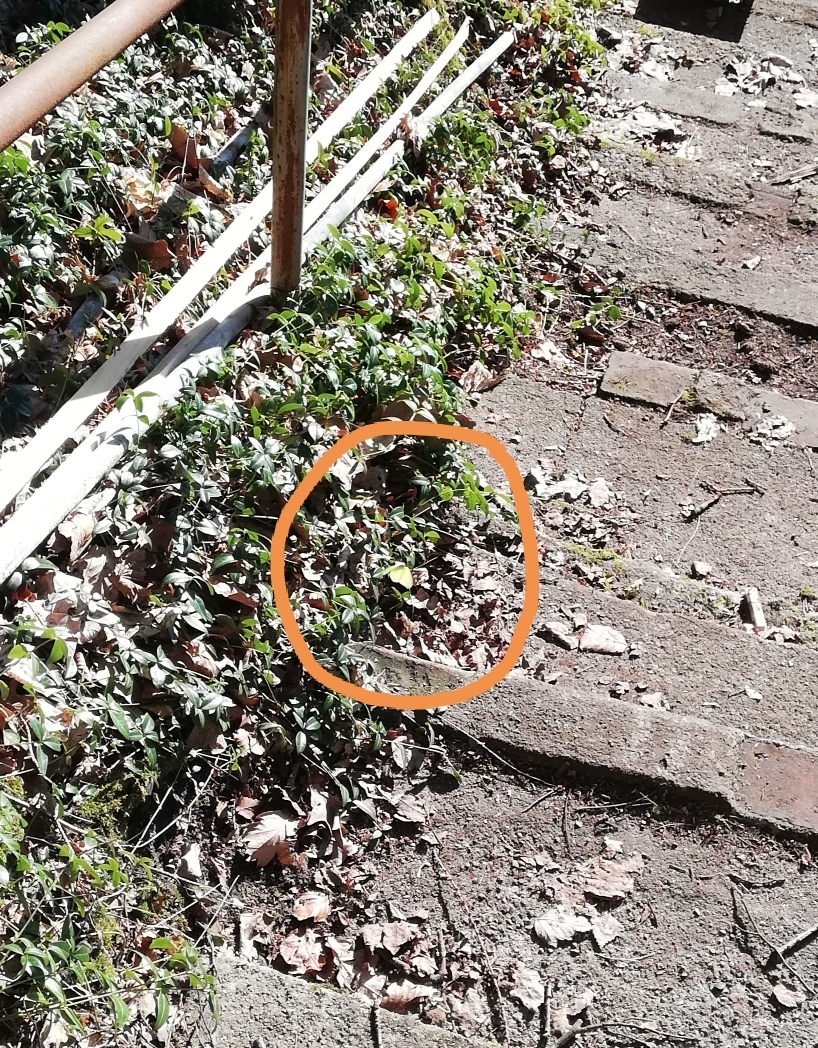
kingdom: Animalia
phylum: Arthropoda
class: Insecta
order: Lepidoptera
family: Pieridae
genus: Gonepteryx
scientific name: Gonepteryx rhamni
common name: Citronsommerfugl
